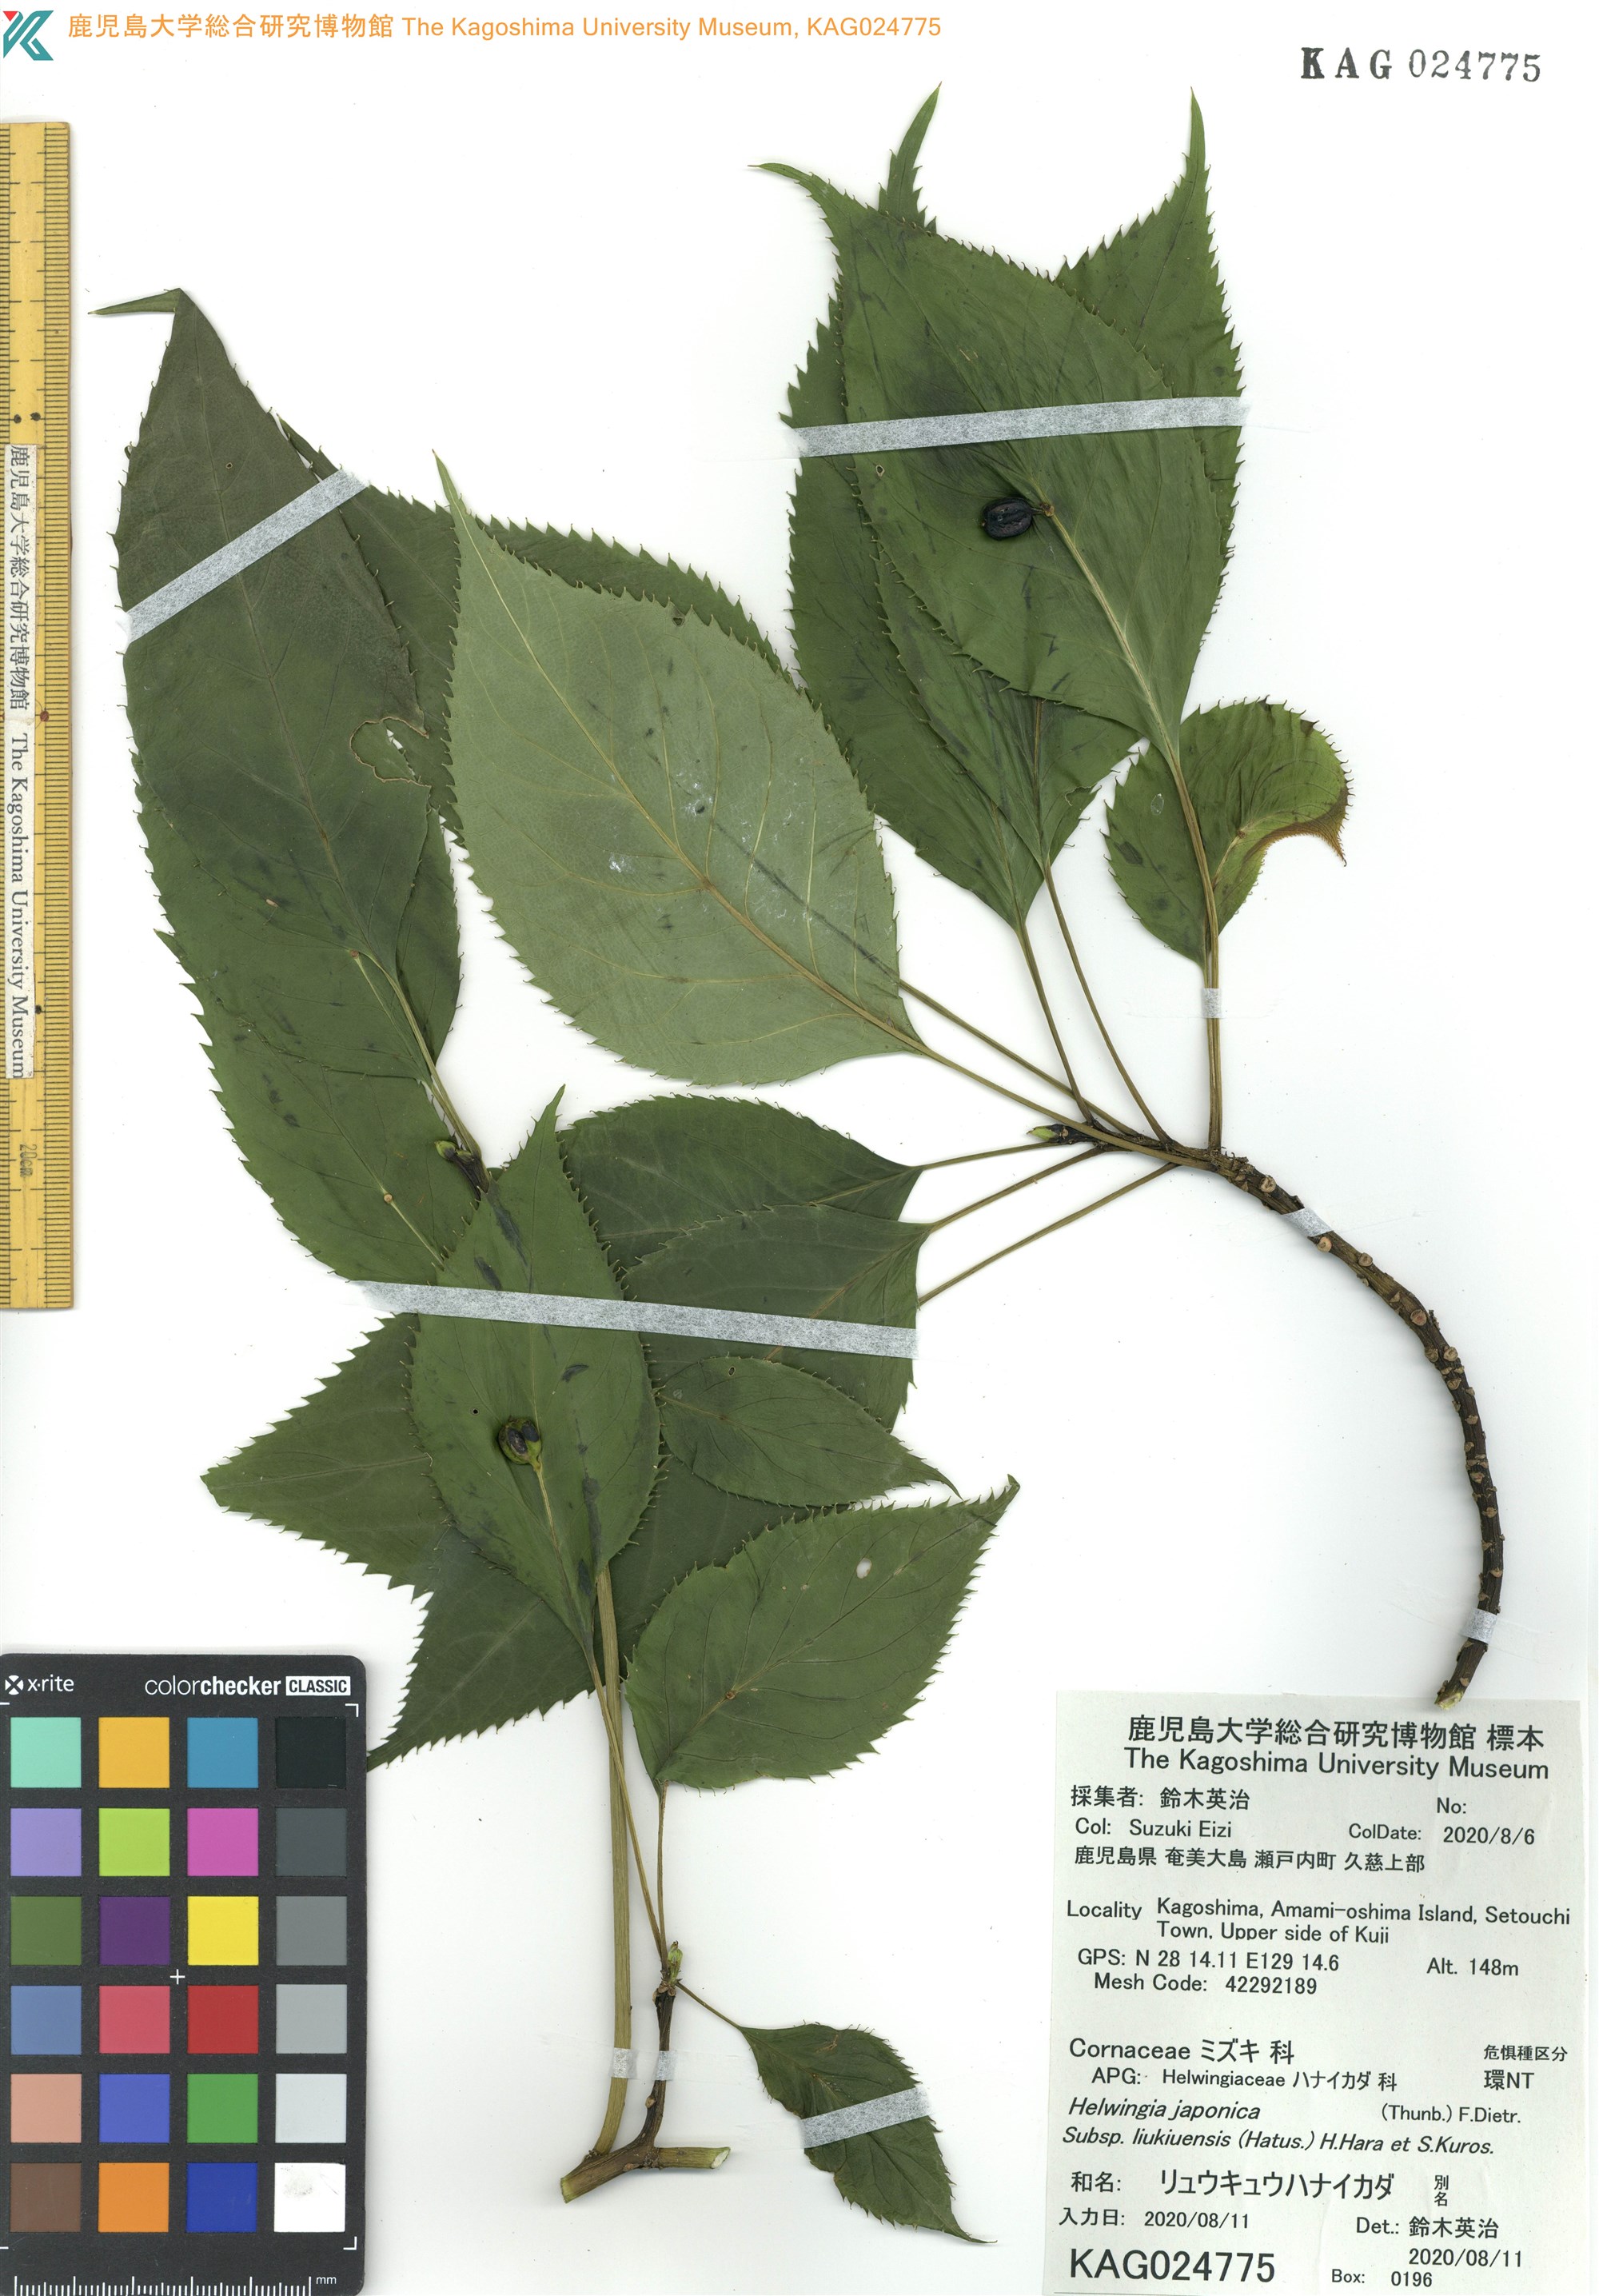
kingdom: Plantae
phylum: Tracheophyta
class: Magnoliopsida
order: Aquifoliales
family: Helwingiaceae
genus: Helwingia
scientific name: Helwingia japonica
